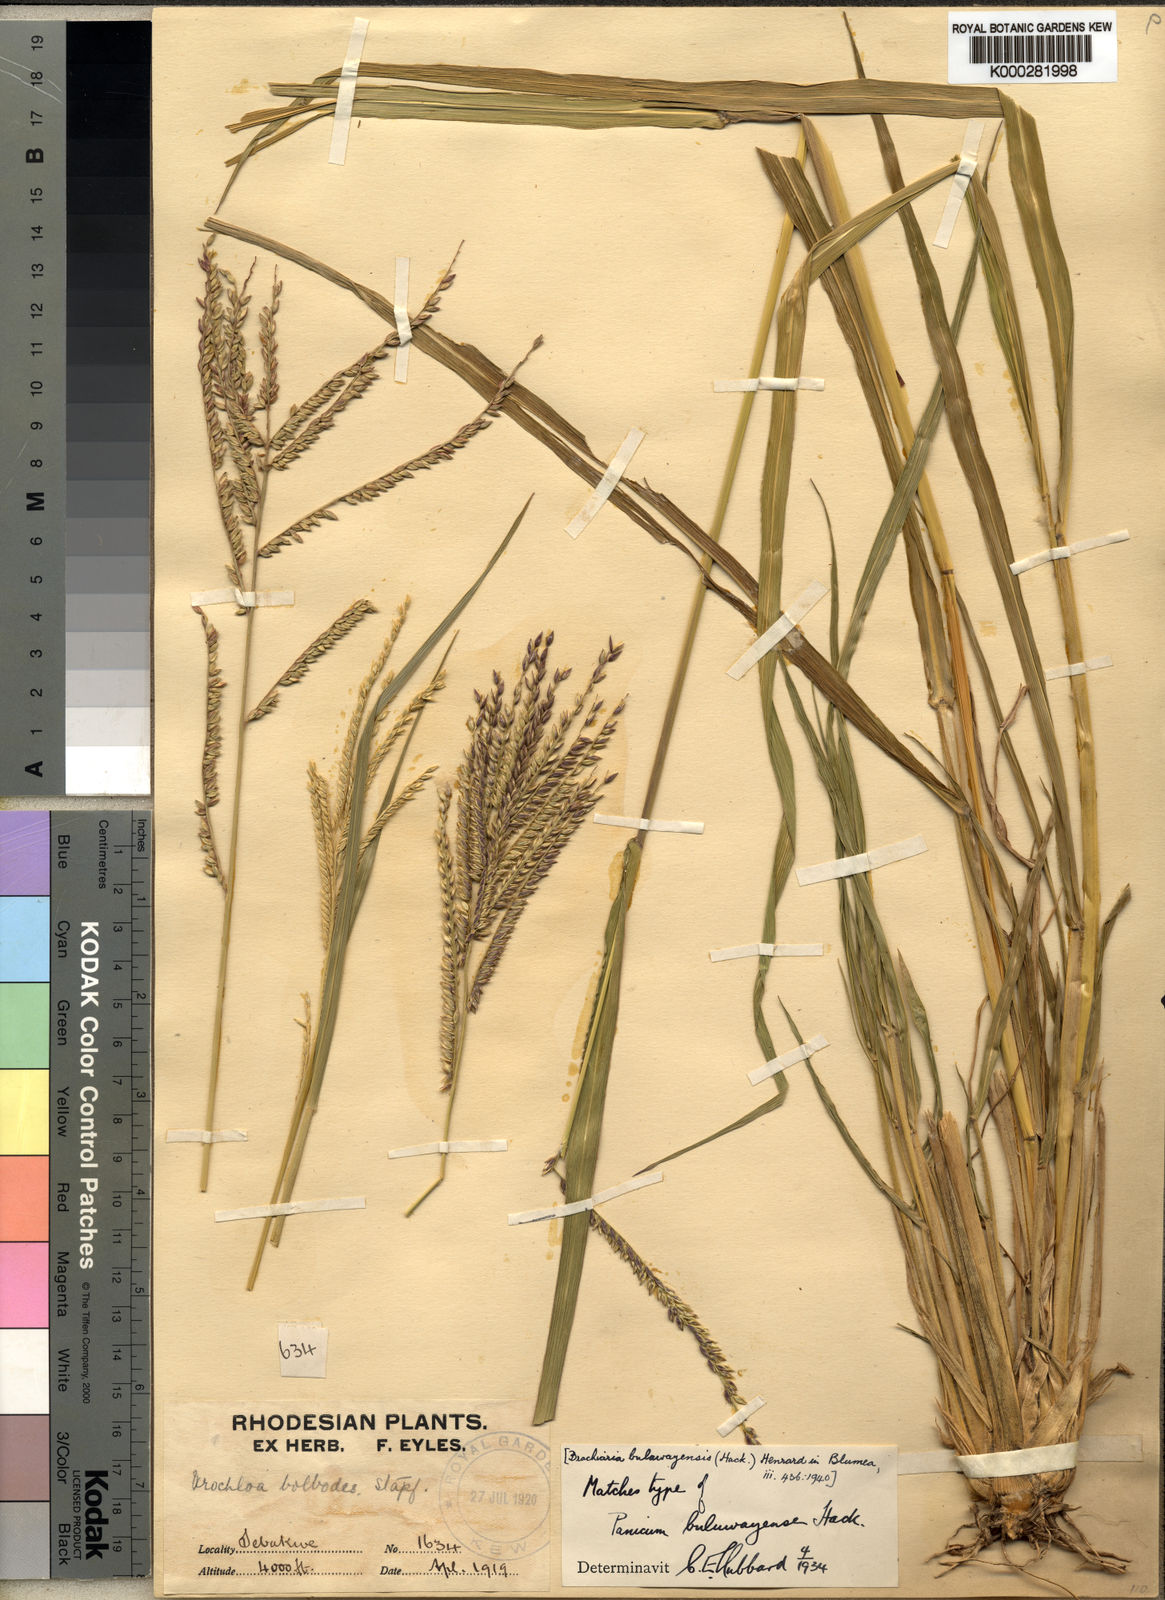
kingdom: Plantae
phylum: Tracheophyta
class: Liliopsida
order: Poales
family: Poaceae
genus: Urochloa
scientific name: Urochloa oligotricha
